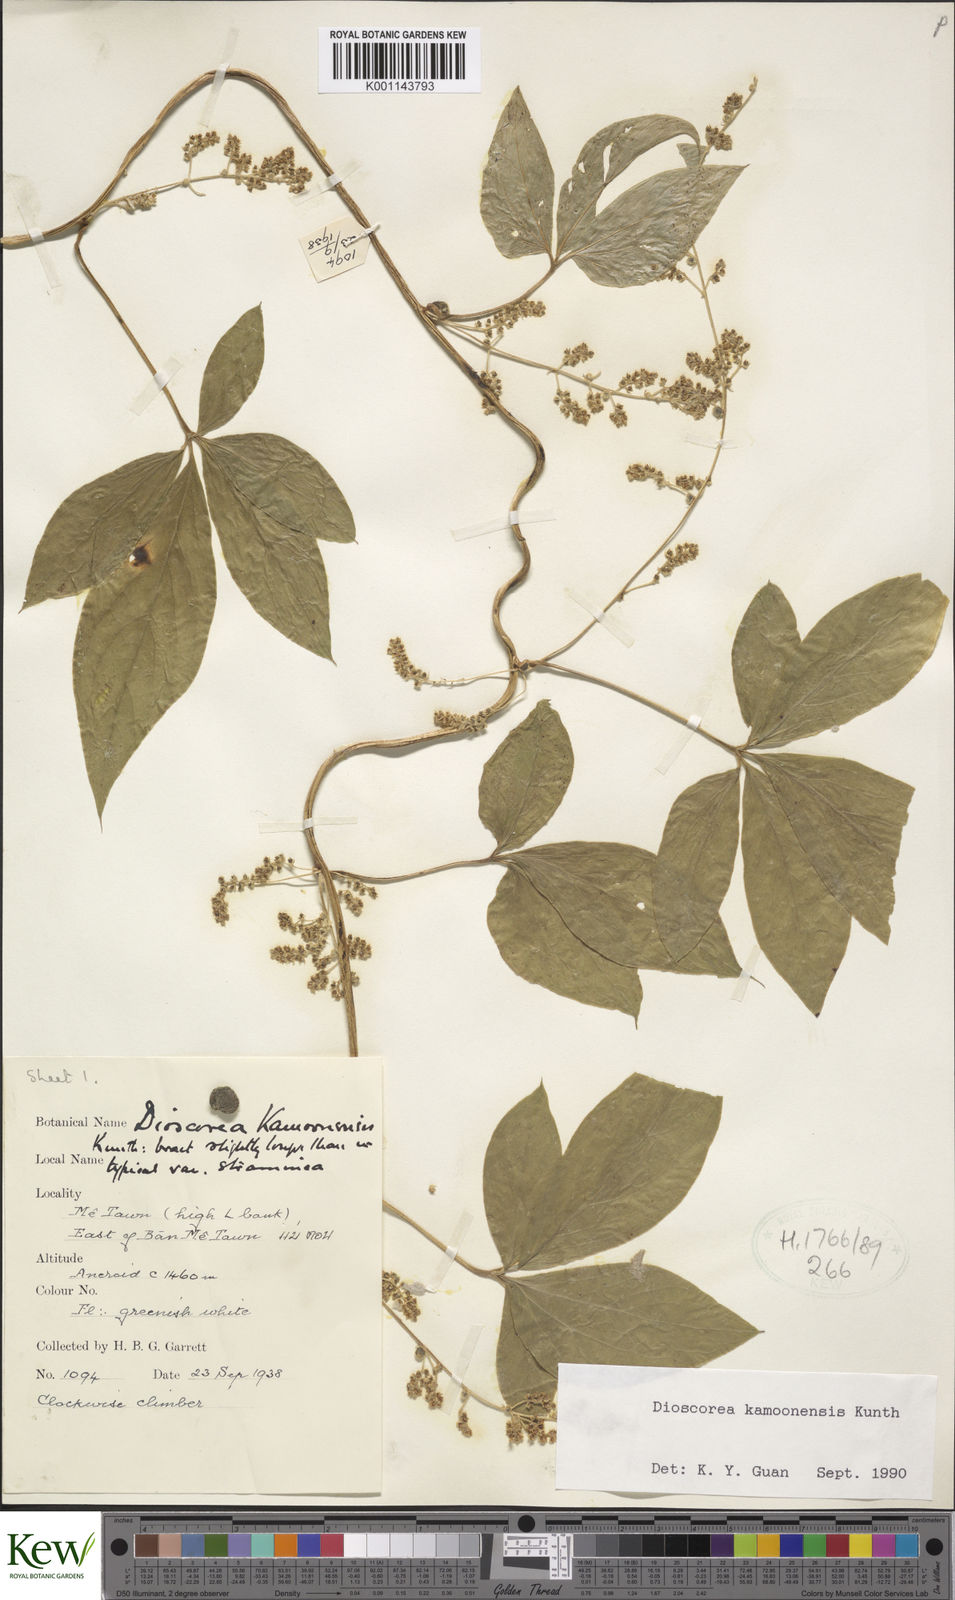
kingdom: Plantae
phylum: Tracheophyta
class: Liliopsida
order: Dioscoreales
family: Dioscoreaceae
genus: Dioscorea
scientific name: Dioscorea kamoonensis
